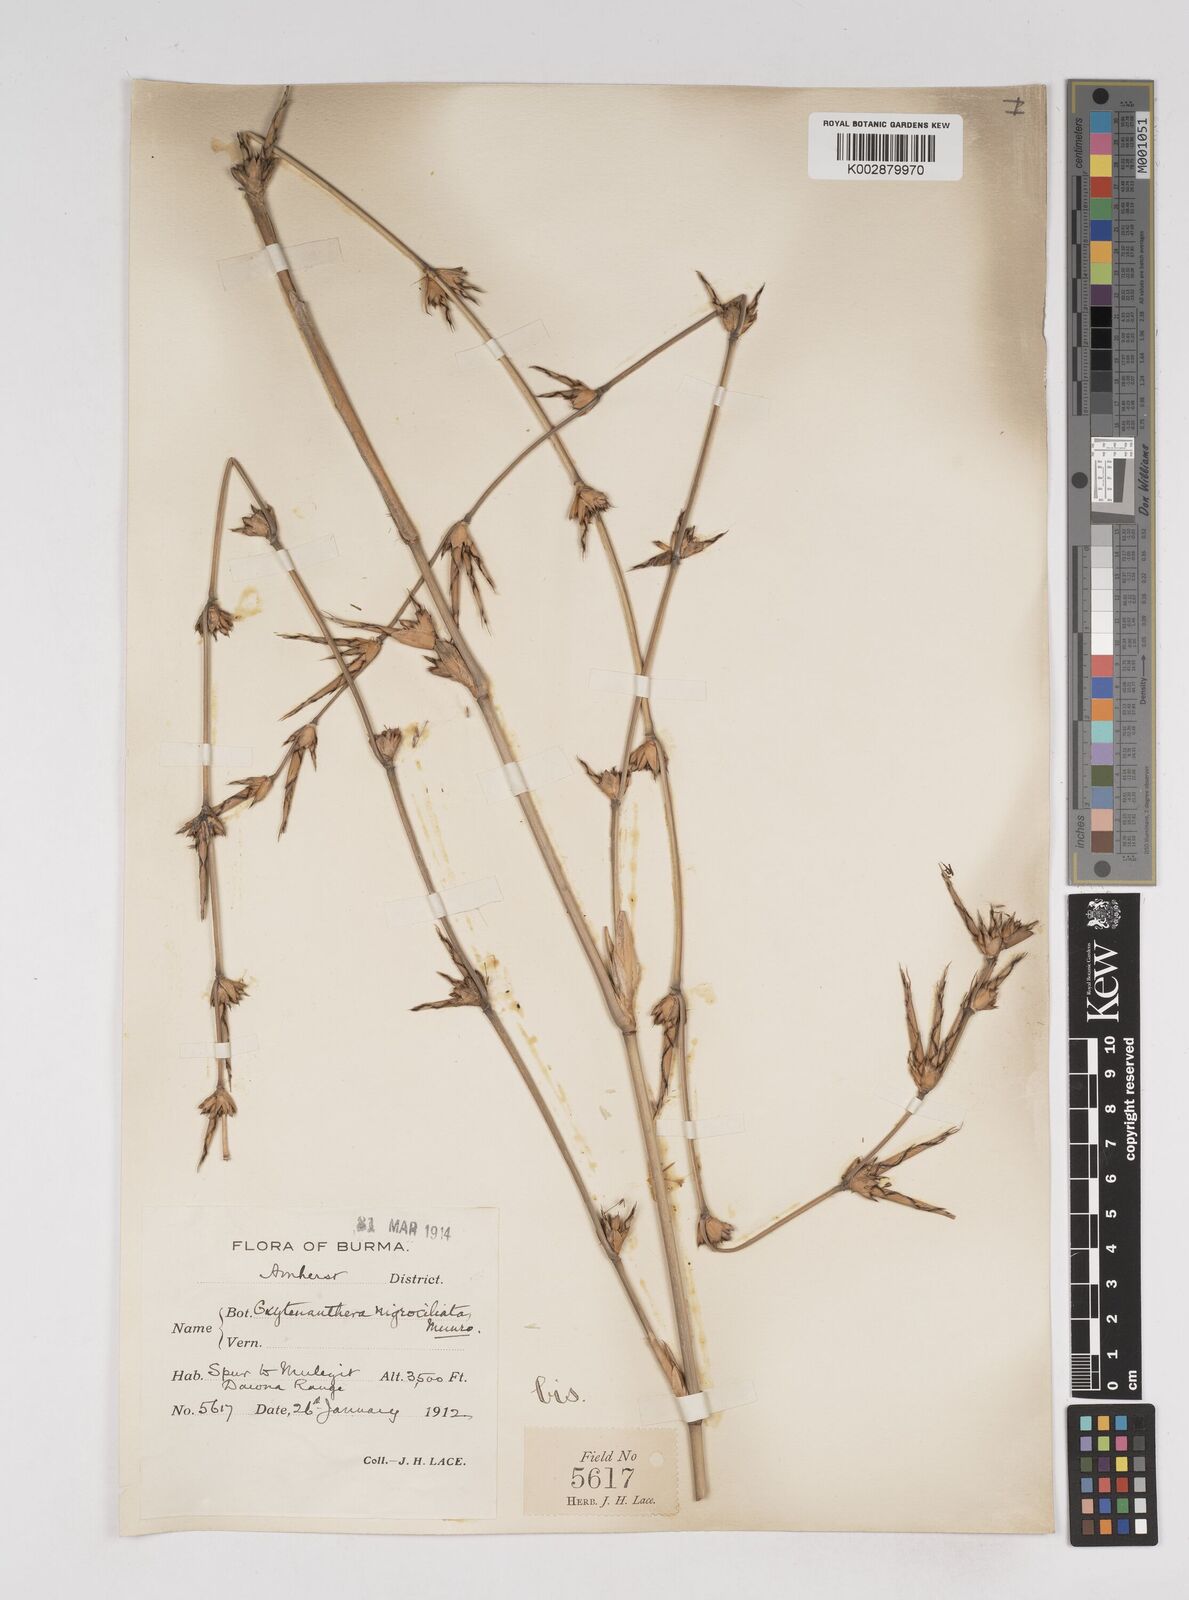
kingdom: Plantae
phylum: Tracheophyta
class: Liliopsida
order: Poales
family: Poaceae
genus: Gigantochloa
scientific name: Gigantochloa nigrociliata
